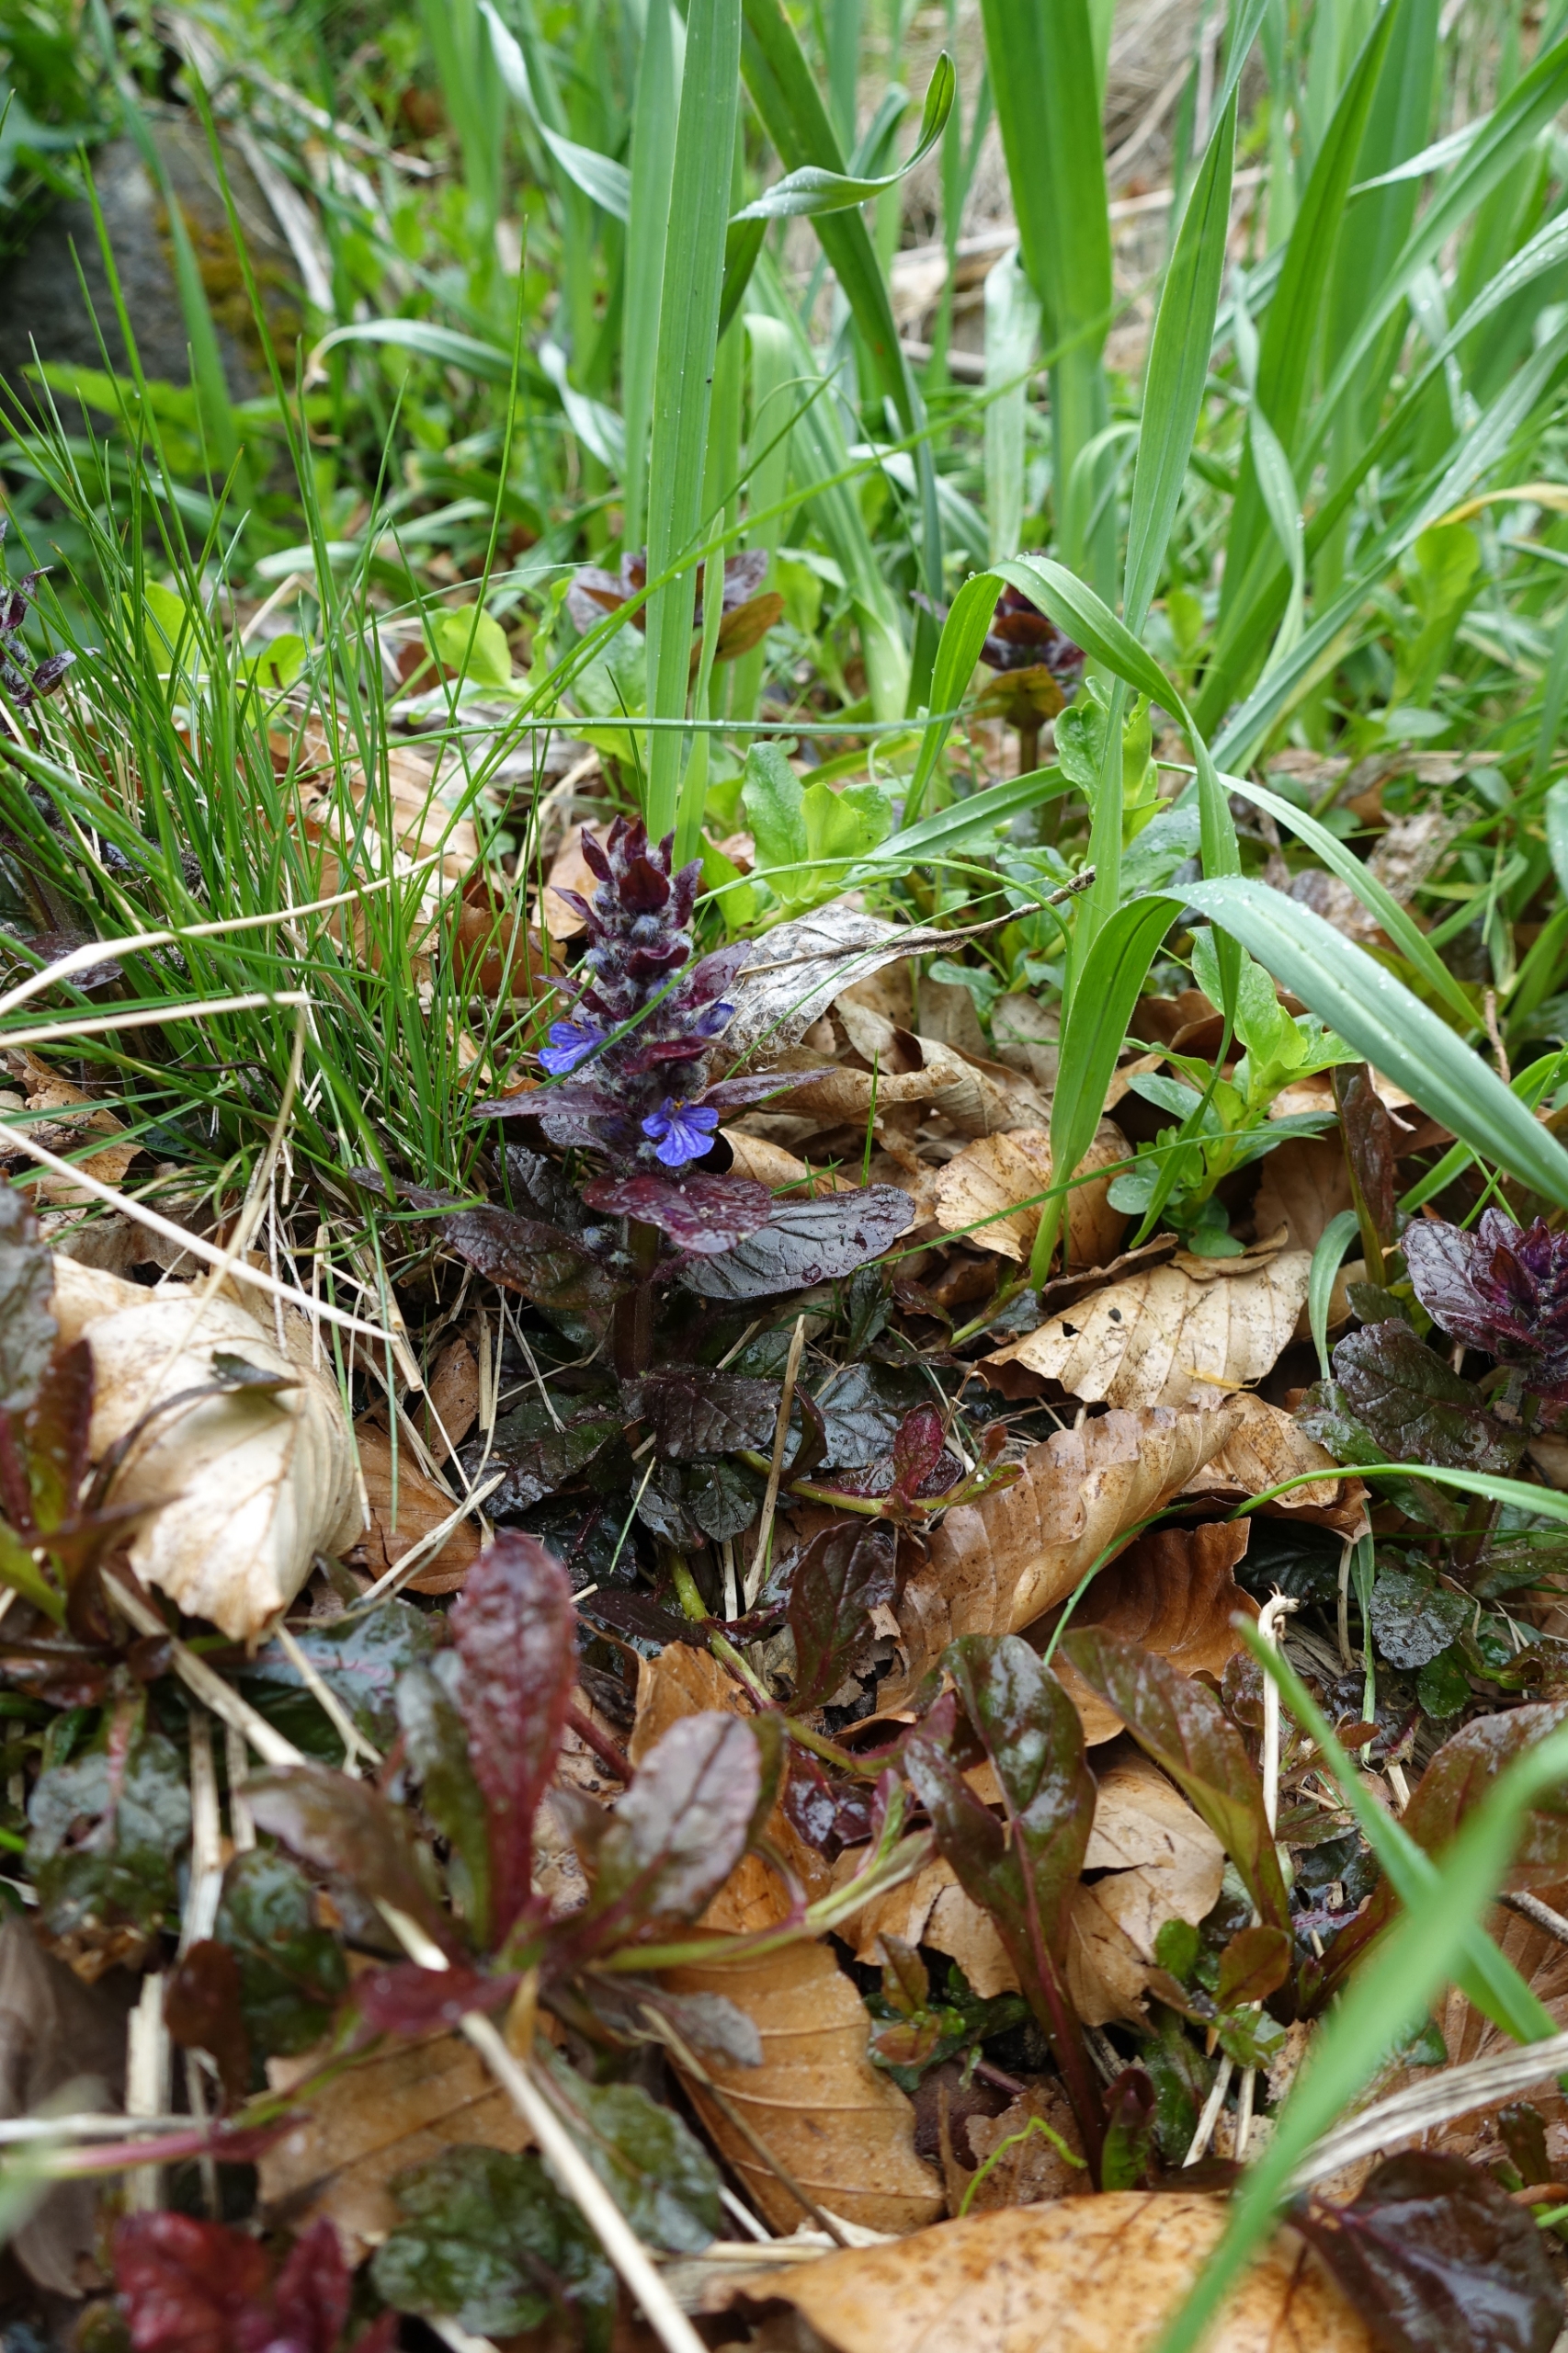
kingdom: Plantae
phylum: Tracheophyta
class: Magnoliopsida
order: Lamiales
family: Lamiaceae
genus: Ajuga
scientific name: Ajuga reptans
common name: Krybende læbeløs
